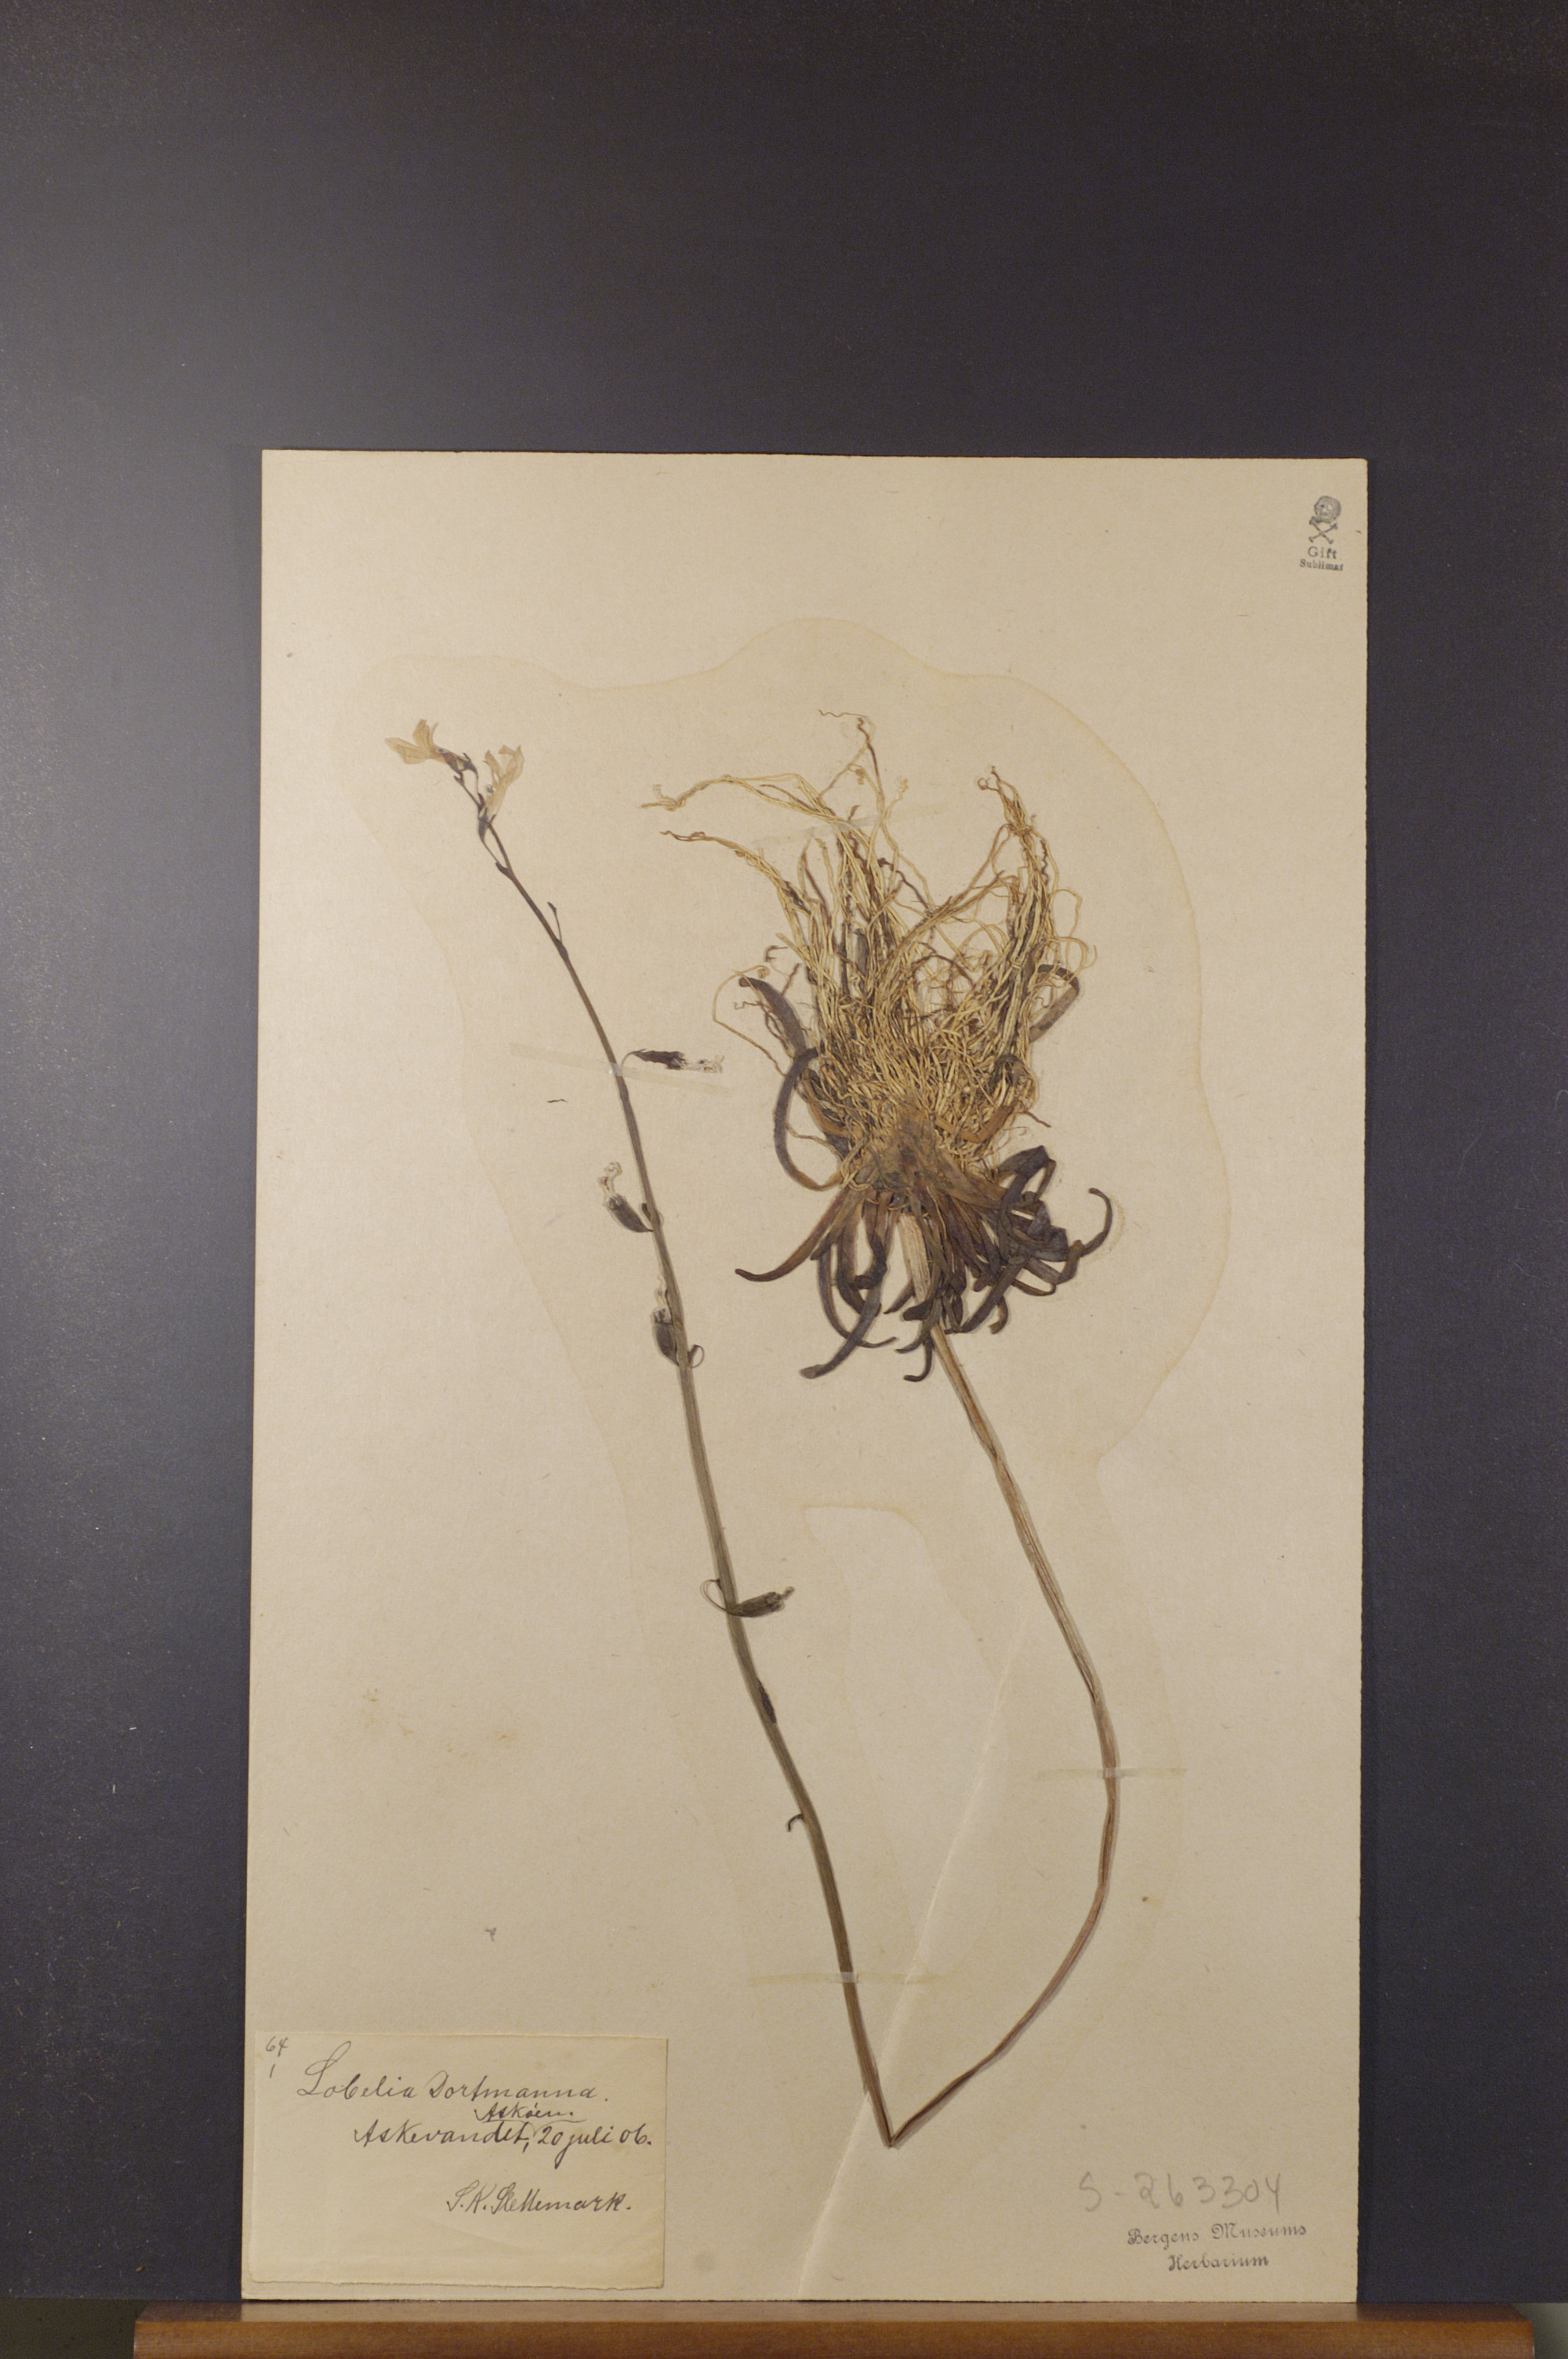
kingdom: Plantae
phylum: Tracheophyta
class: Magnoliopsida
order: Asterales
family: Campanulaceae
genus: Lobelia
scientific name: Lobelia dortmanna
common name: Water lobelia
